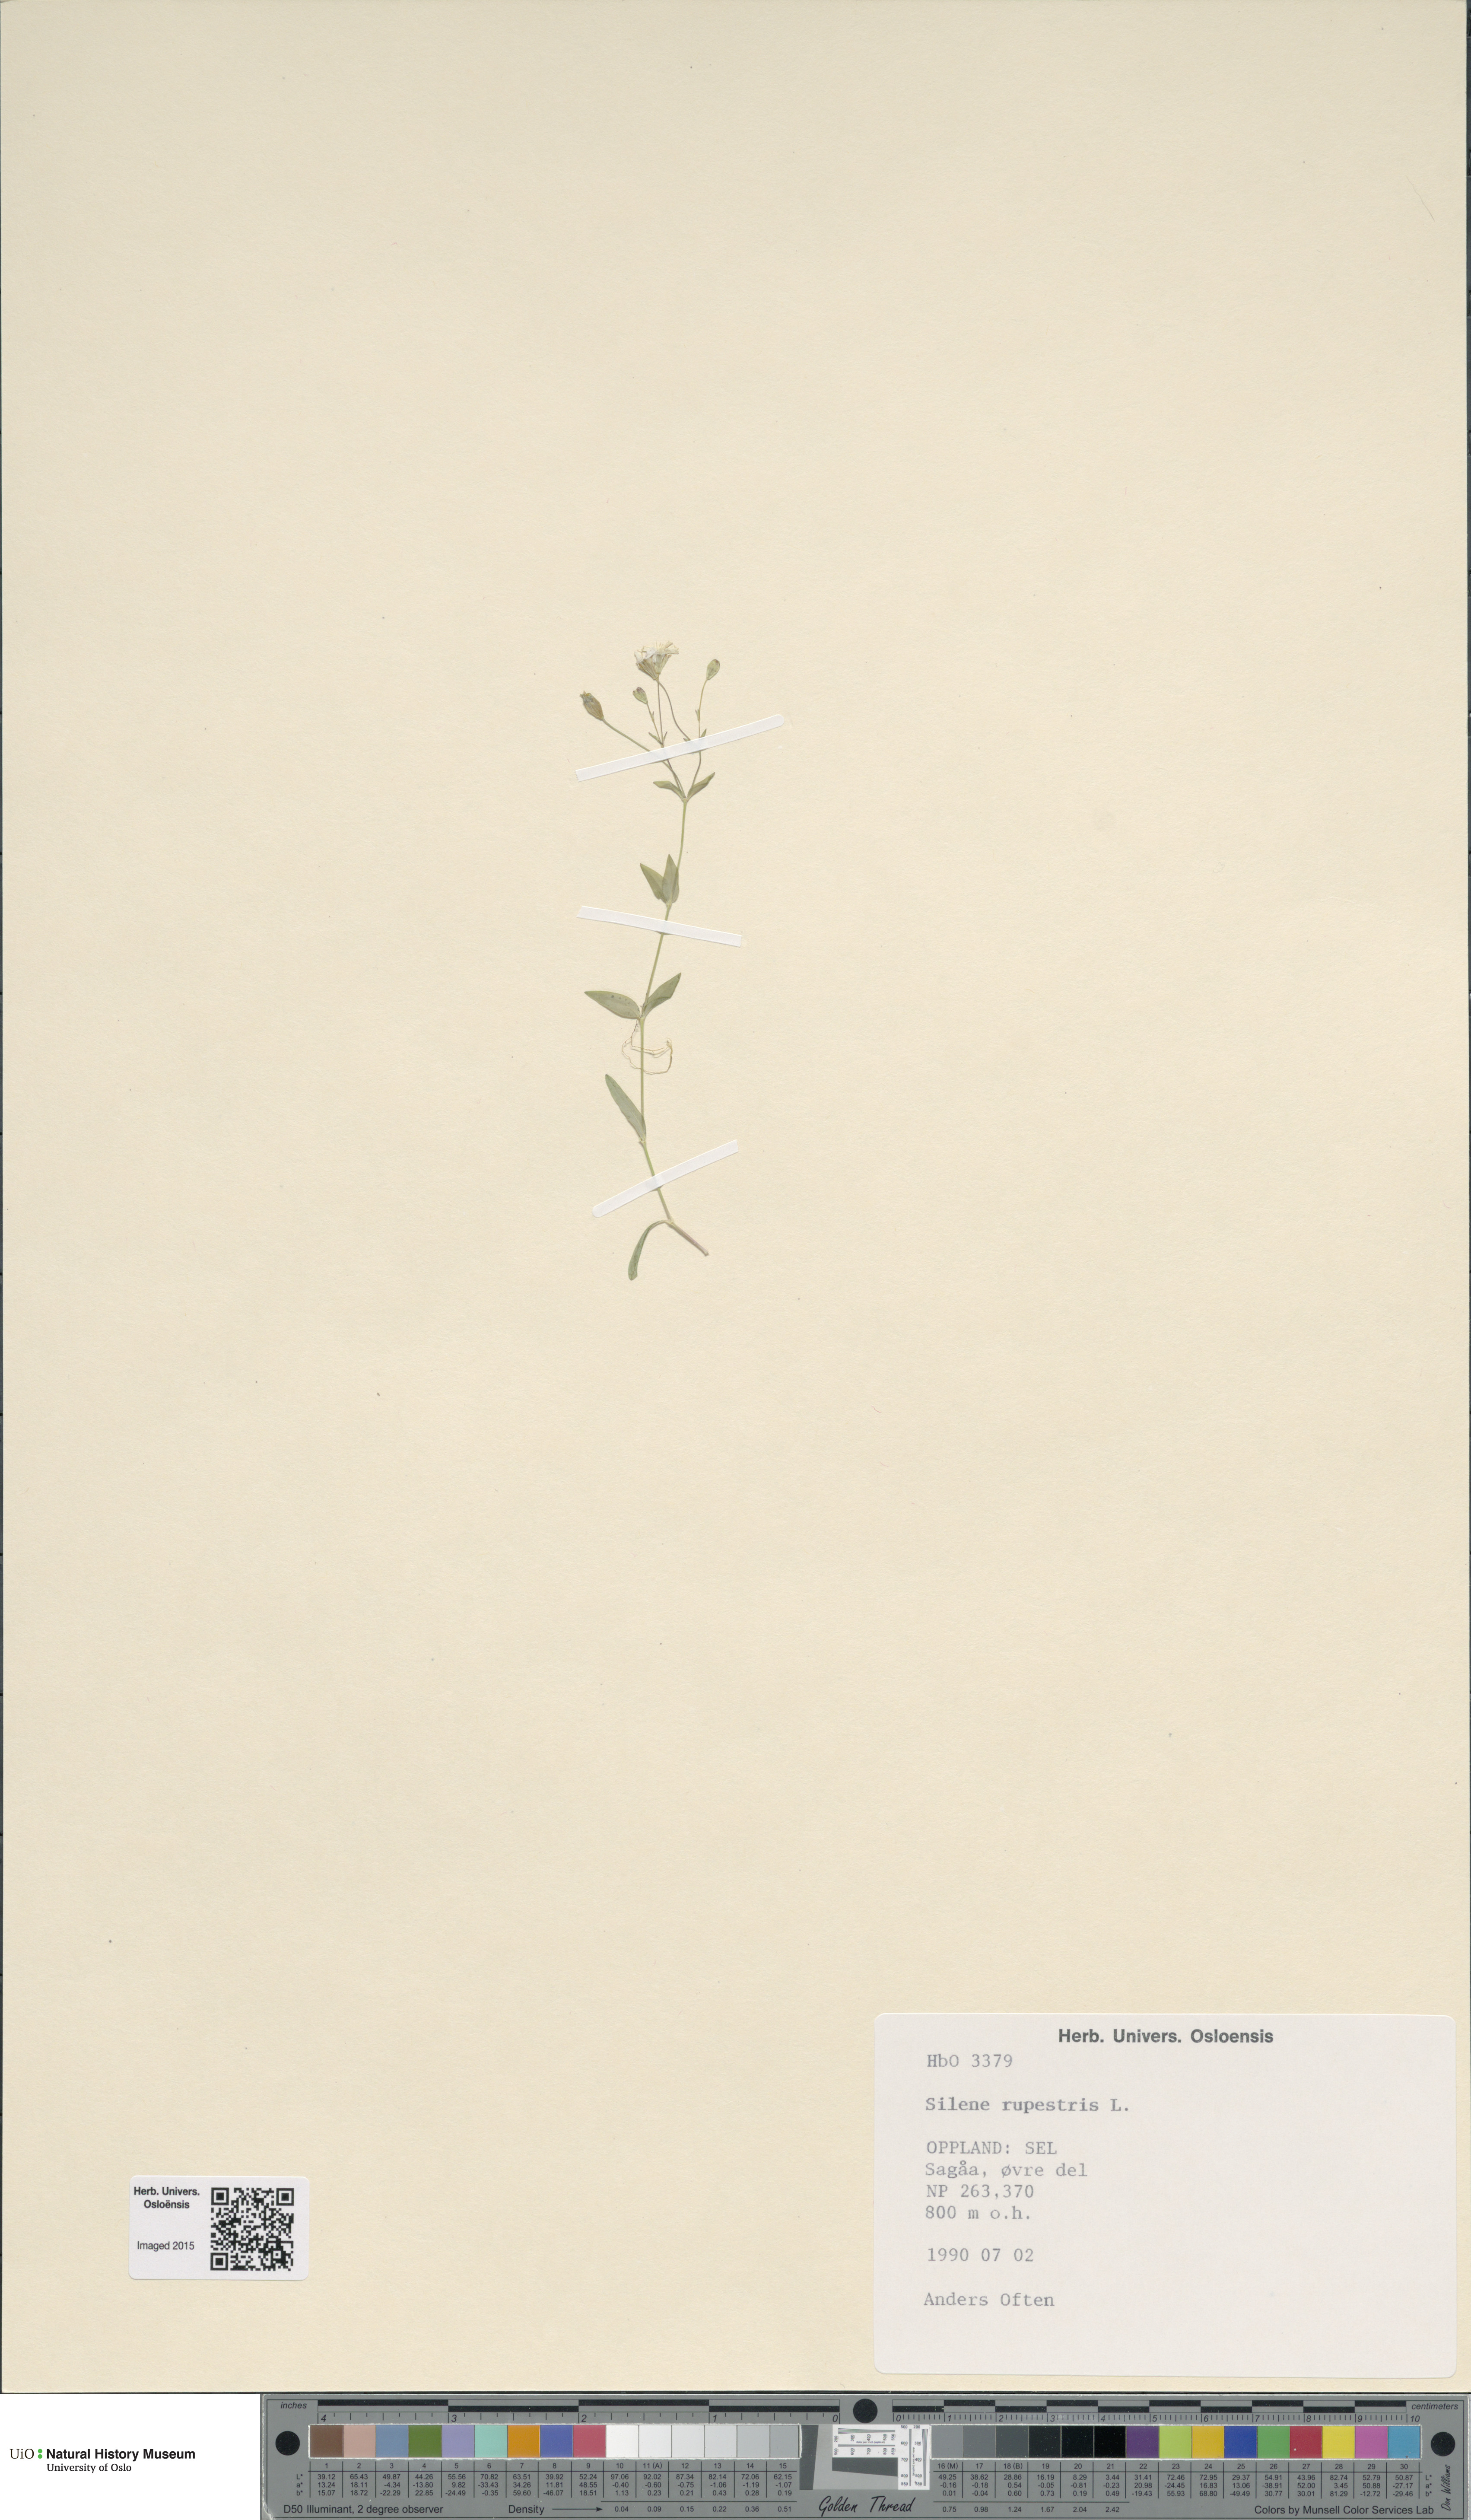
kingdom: Plantae
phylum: Tracheophyta
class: Magnoliopsida
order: Caryophyllales
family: Caryophyllaceae
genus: Atocion
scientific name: Atocion rupestre
